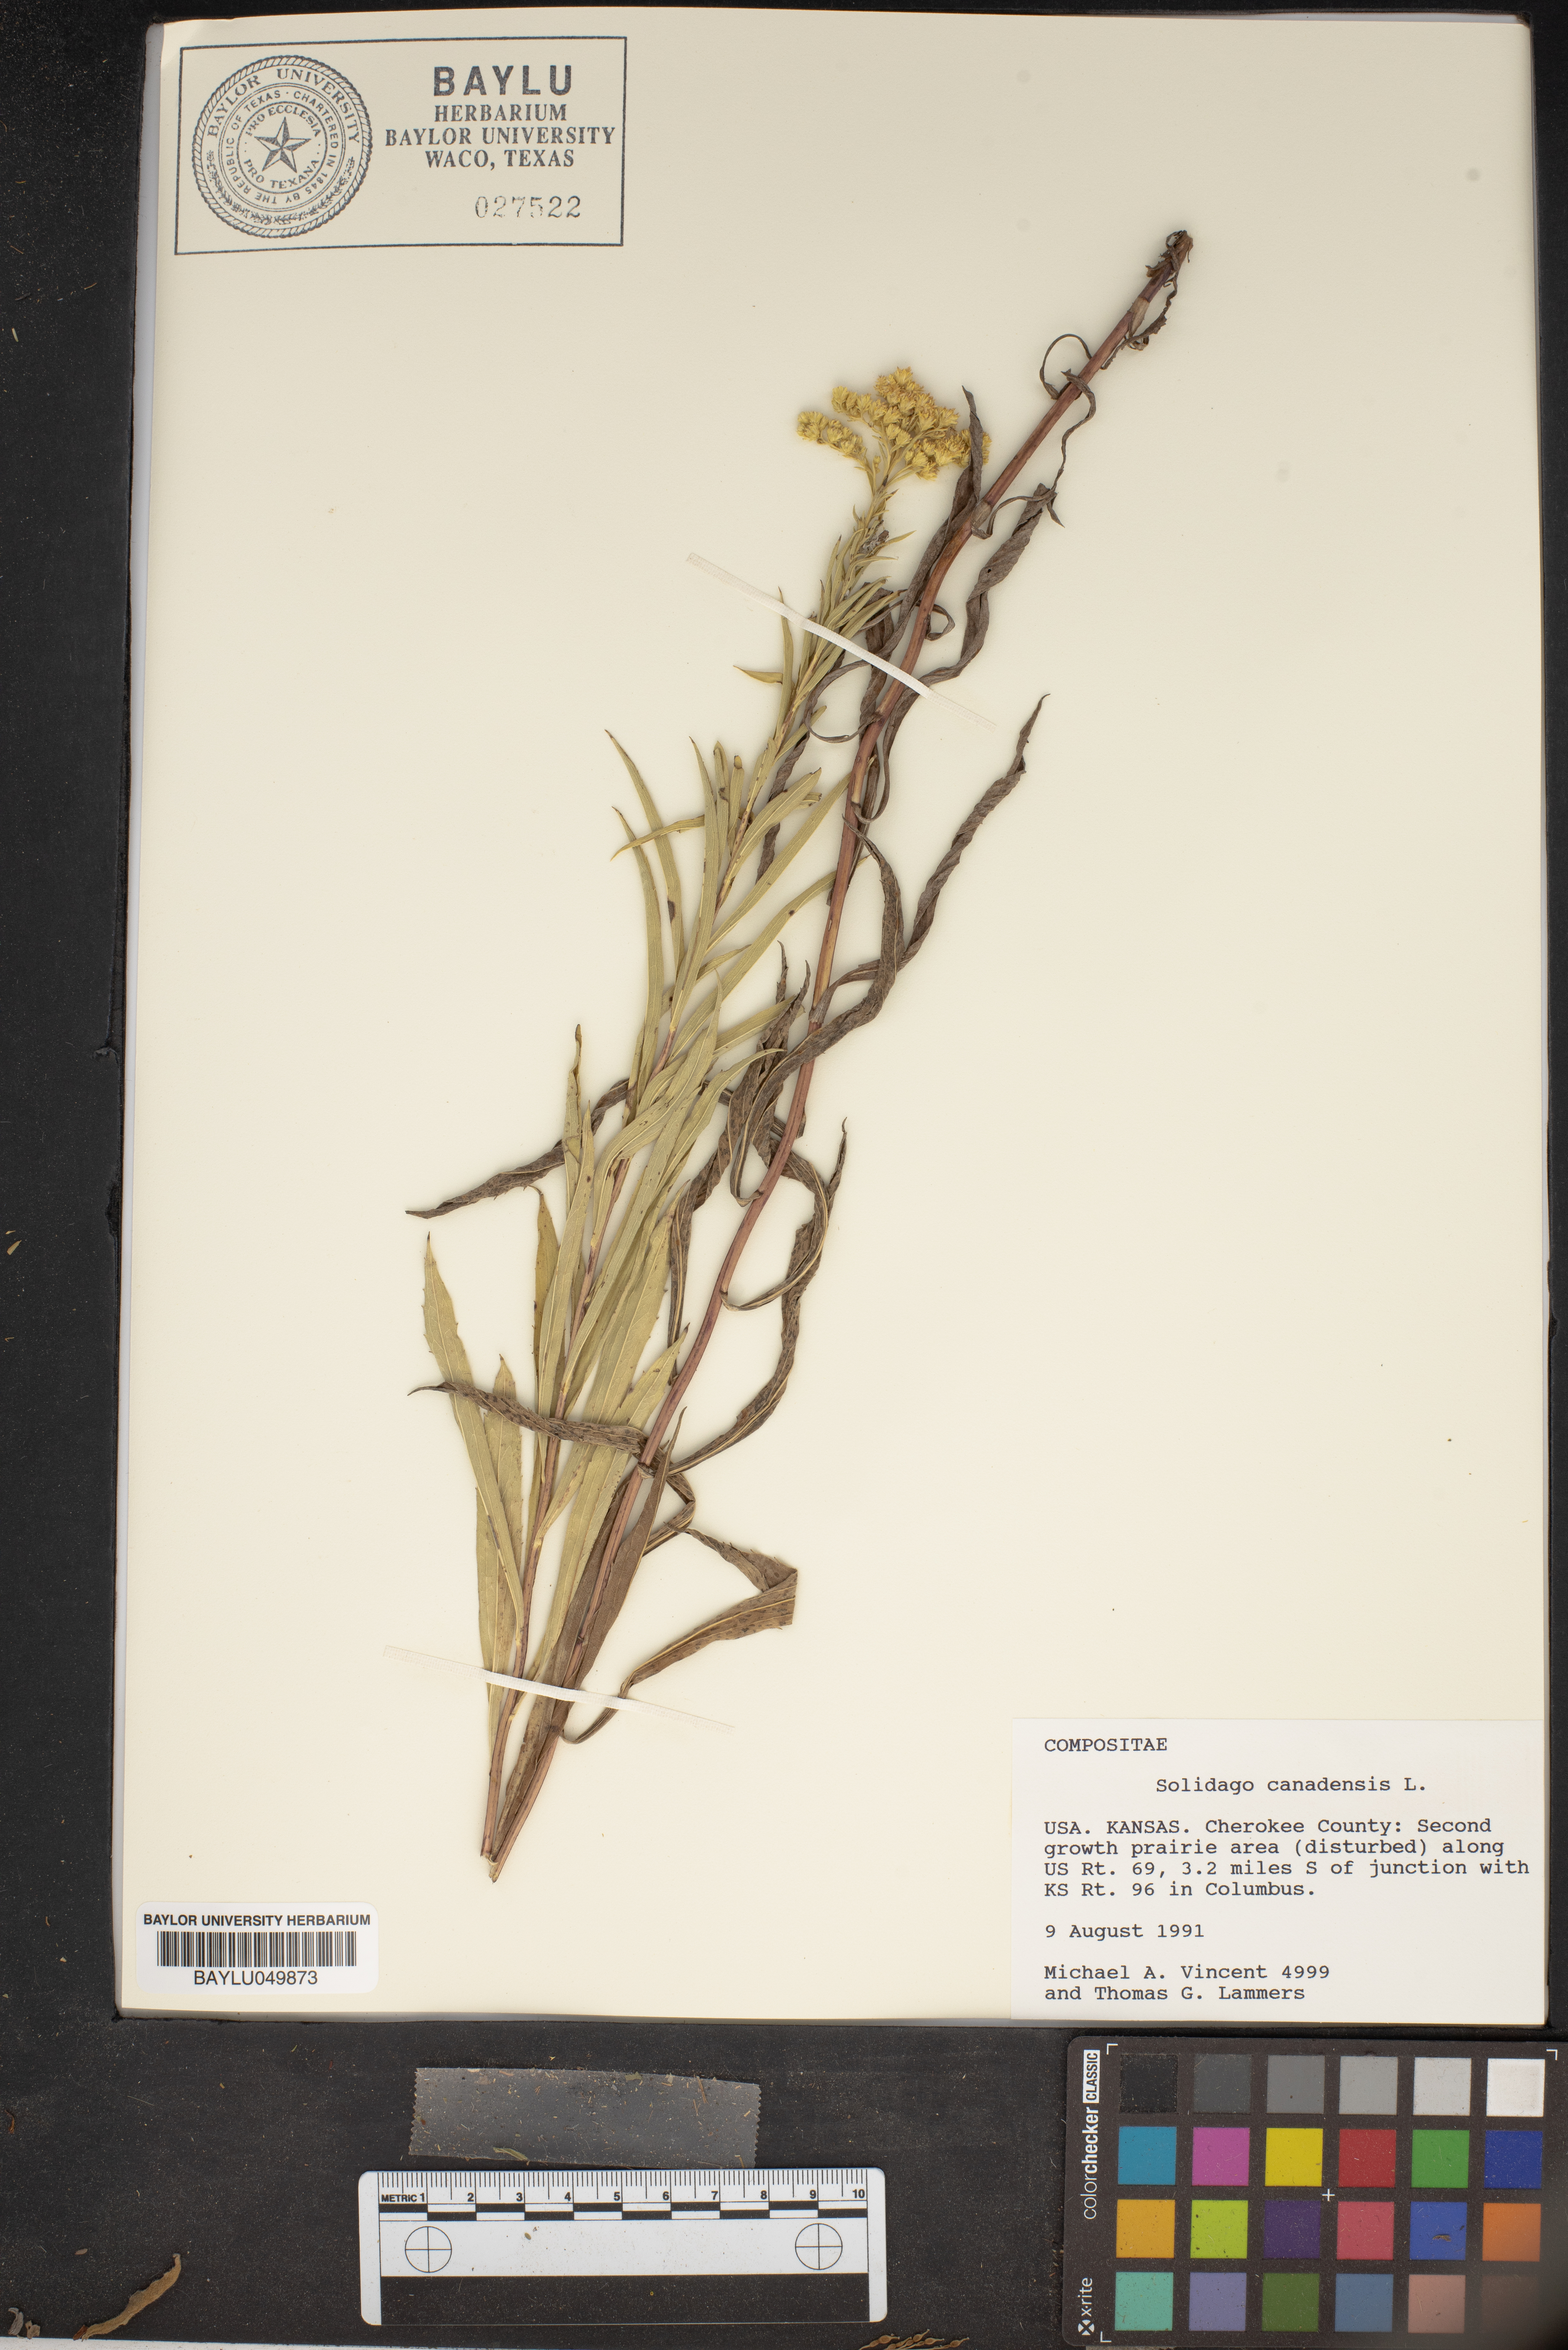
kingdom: Plantae
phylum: Tracheophyta
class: Magnoliopsida
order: Asterales
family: Asteraceae
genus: Solidago
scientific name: Solidago canadensis
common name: Canada goldenrod
